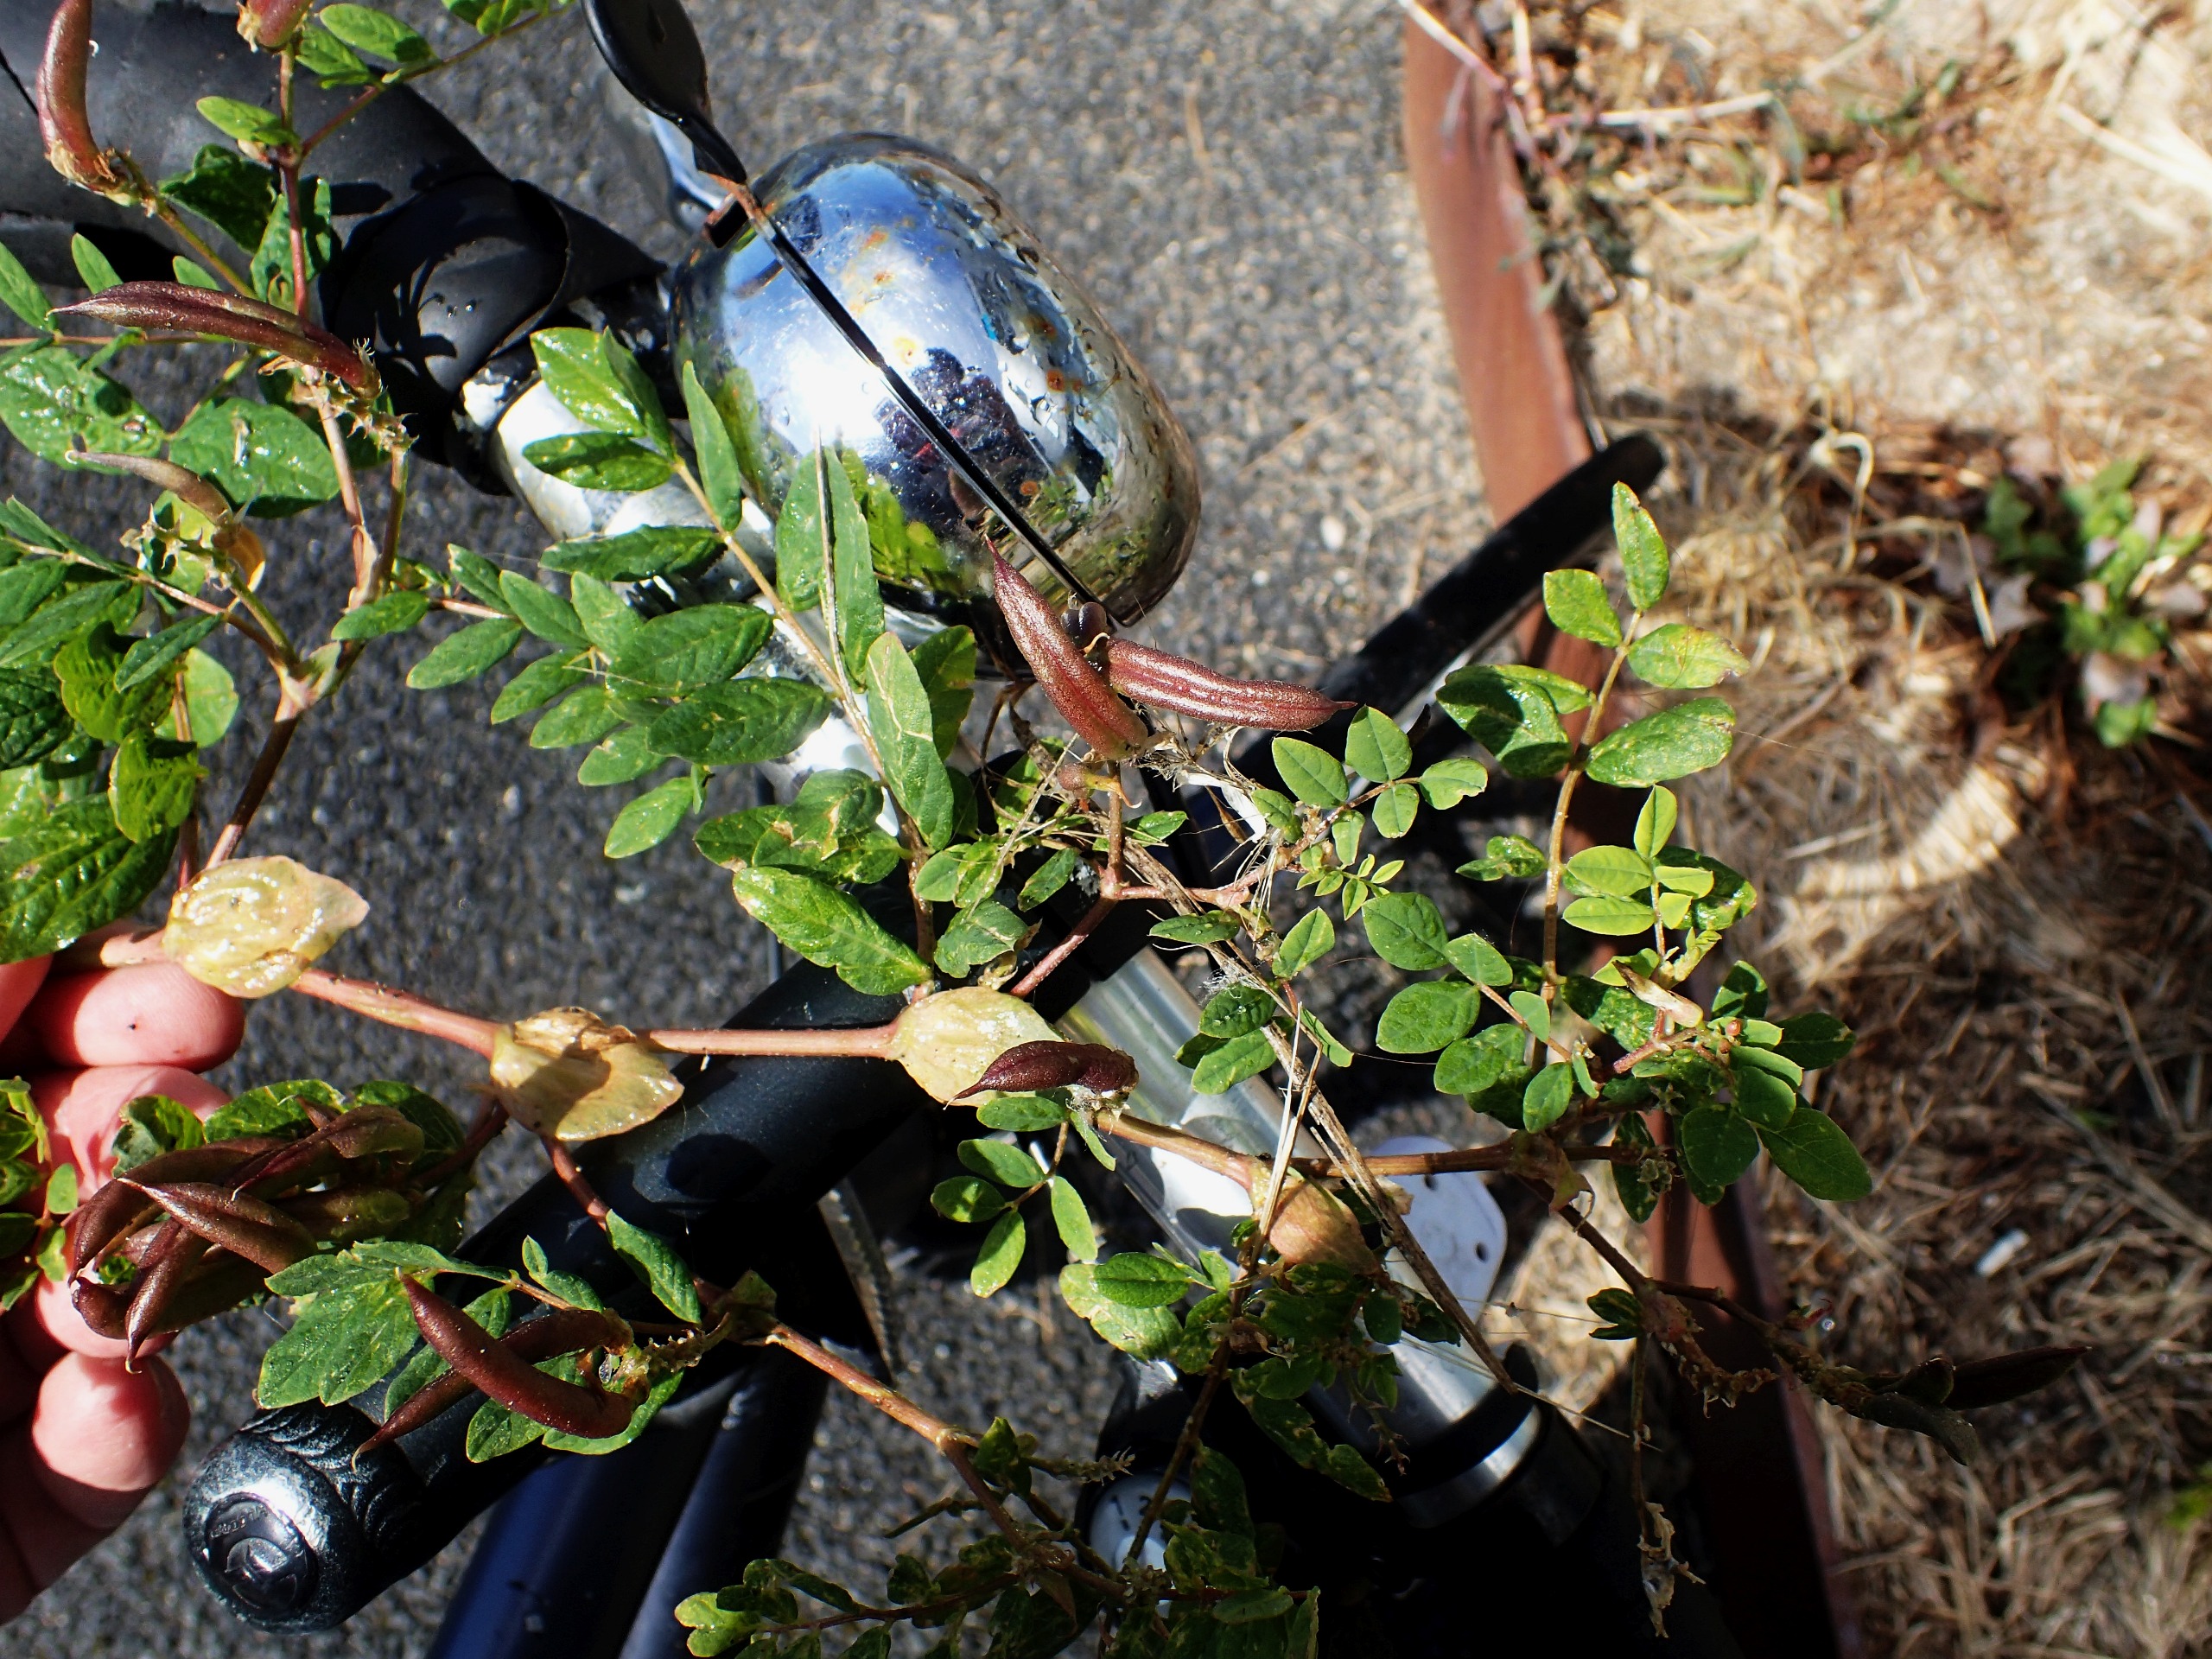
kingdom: Plantae
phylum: Tracheophyta
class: Magnoliopsida
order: Fabales
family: Fabaceae
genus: Astragalus
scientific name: Astragalus glycyphyllos
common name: Sød astragel
